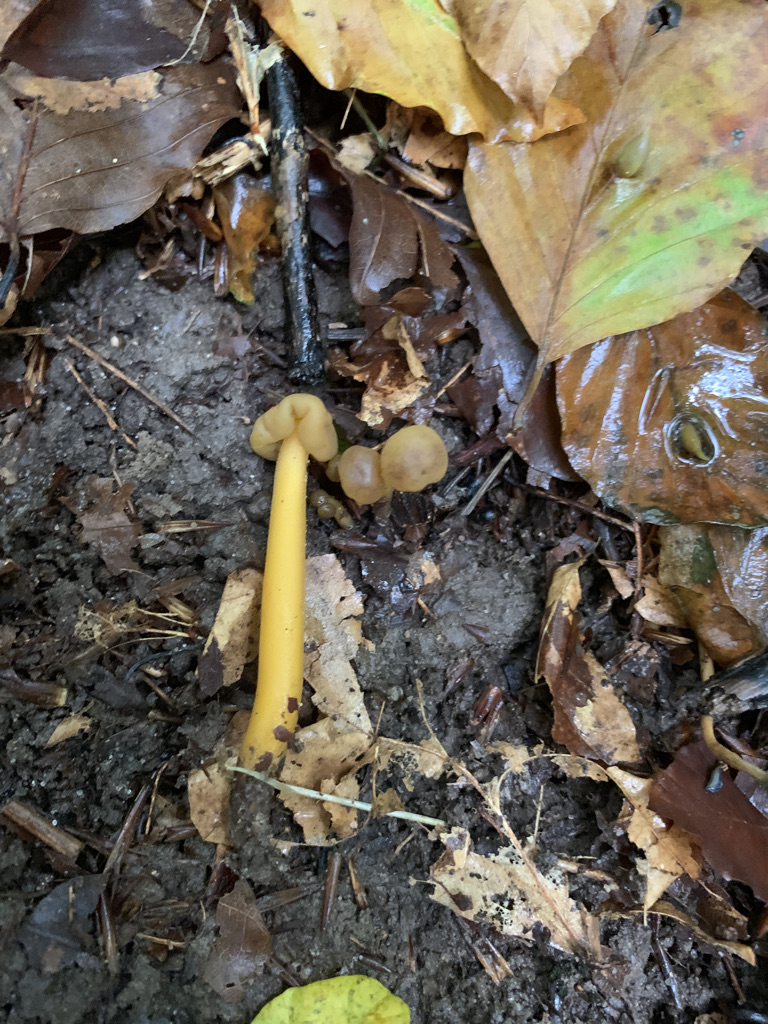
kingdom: Fungi
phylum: Ascomycota
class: Leotiomycetes
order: Leotiales
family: Leotiaceae
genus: Leotia
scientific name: Leotia lubrica
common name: ravsvamp
